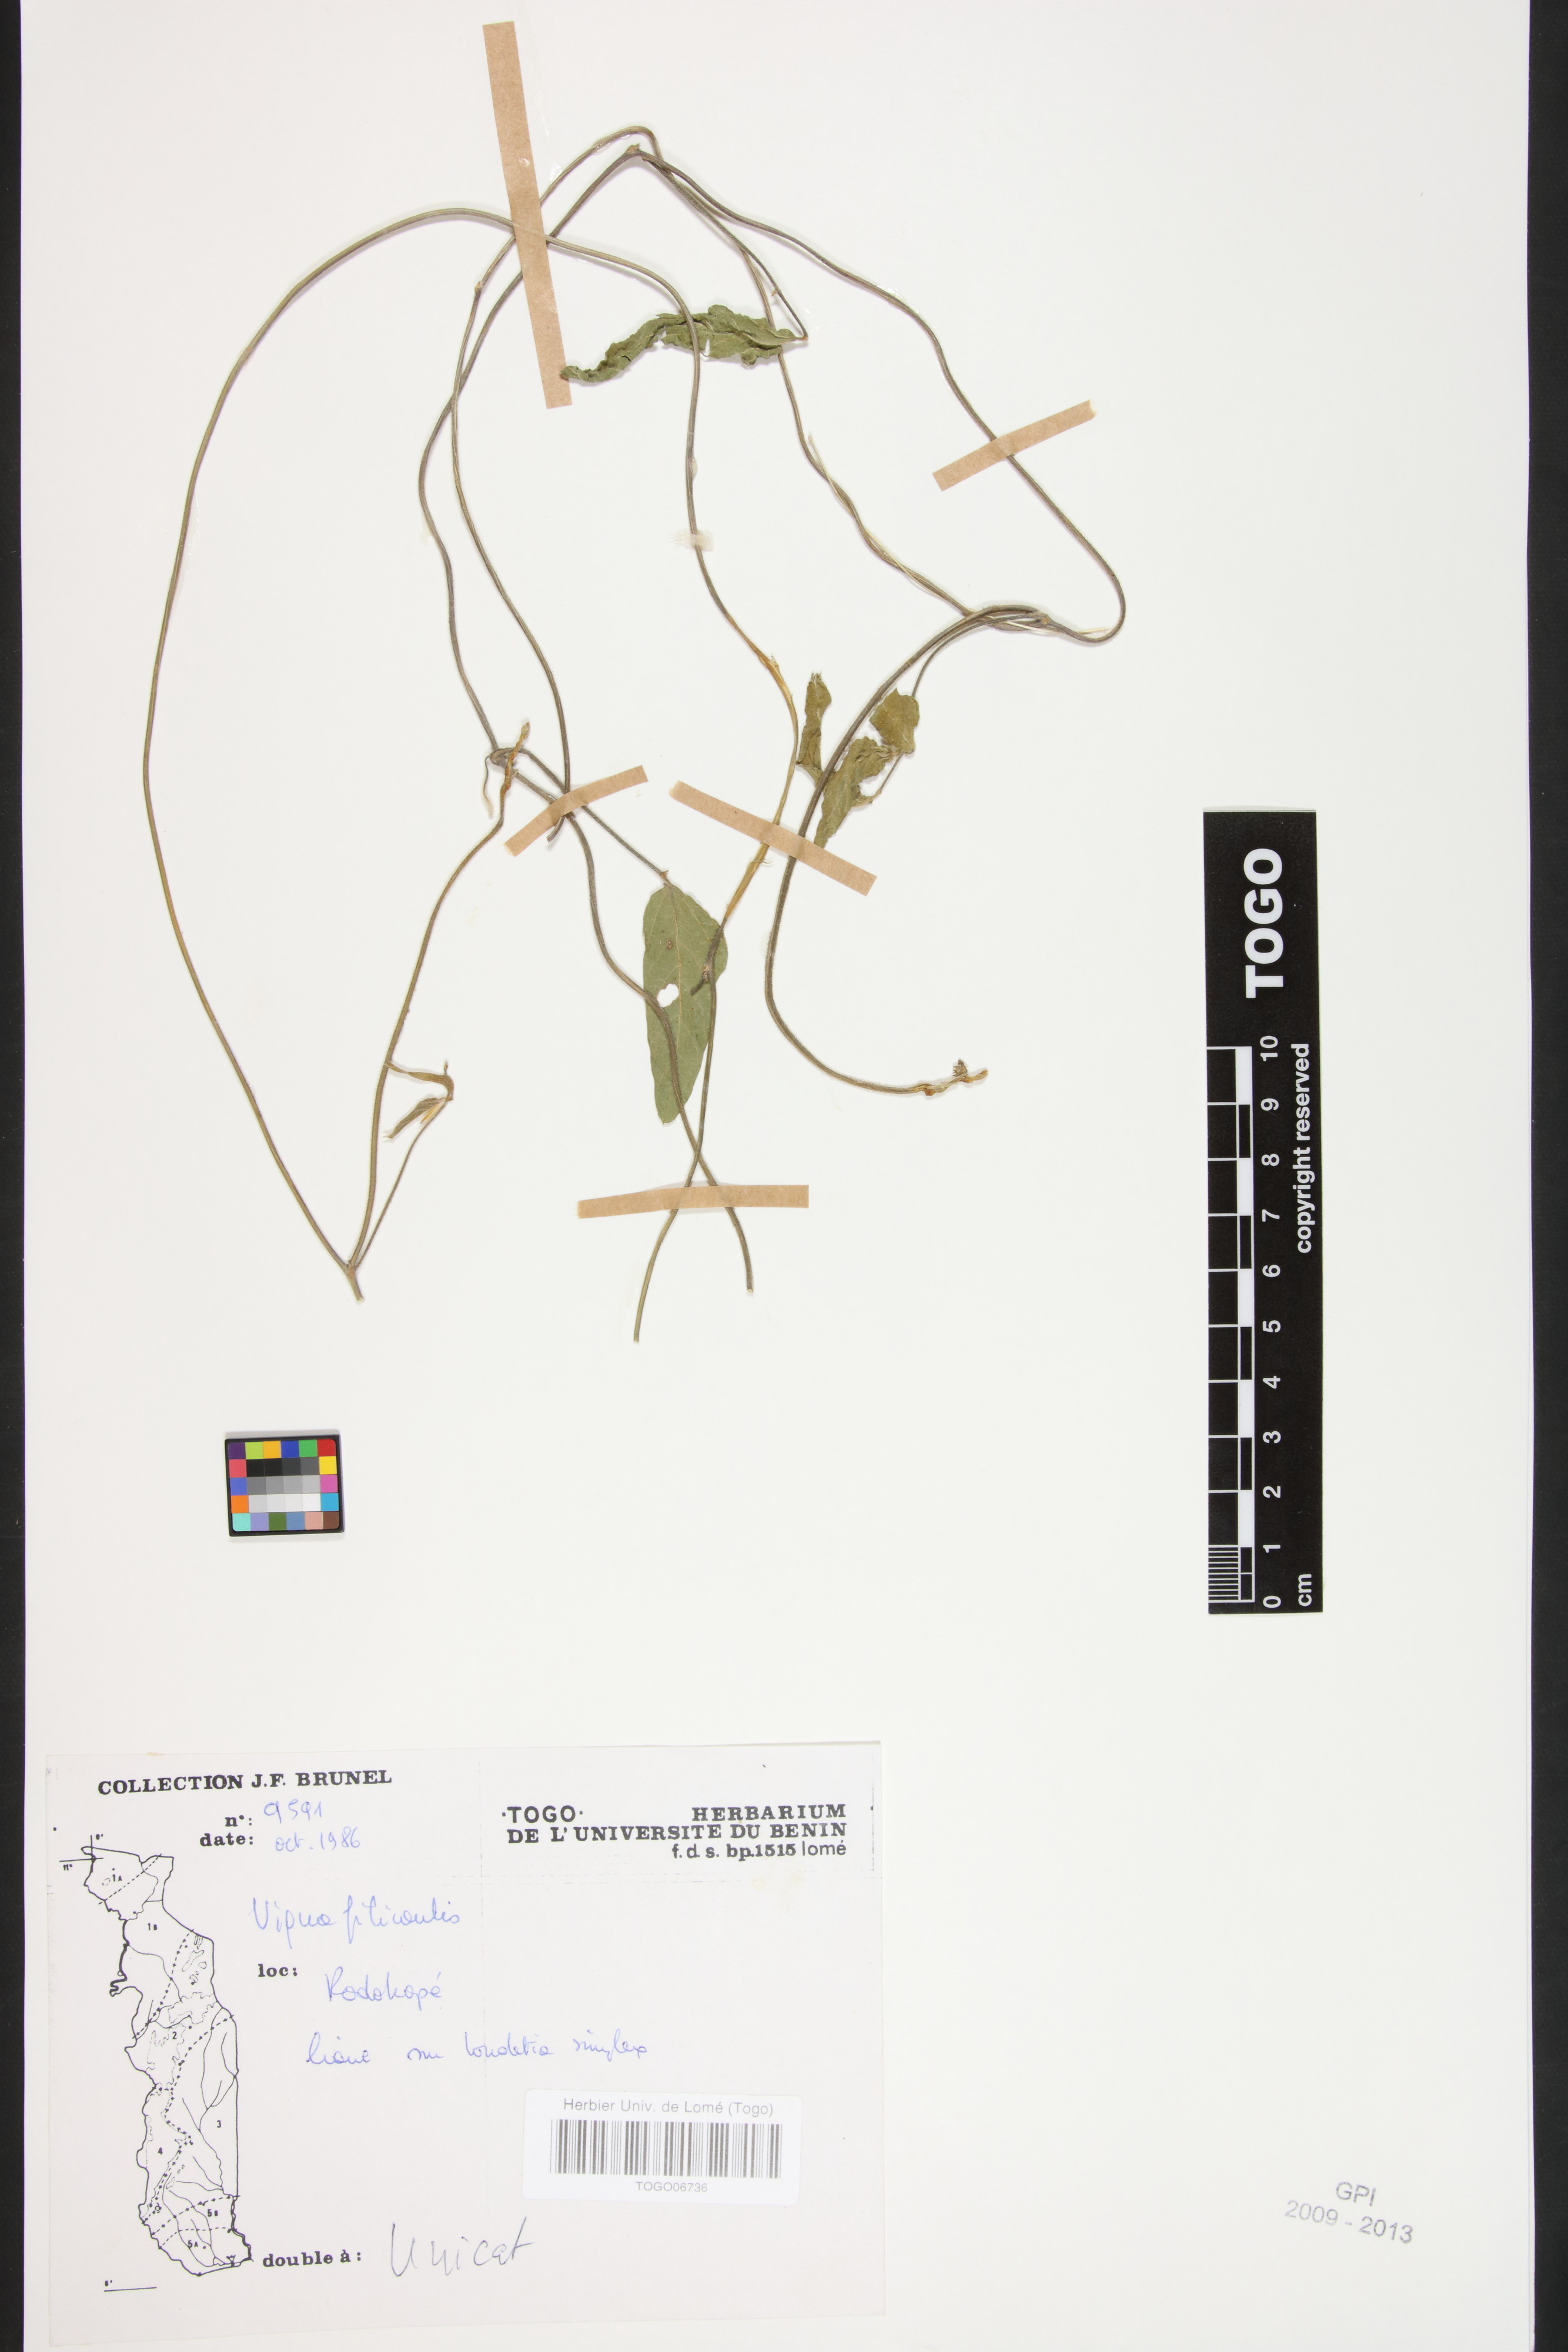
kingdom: Plantae
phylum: Tracheophyta
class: Magnoliopsida
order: Fabales
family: Fabaceae
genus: Vigna
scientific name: Vigna filicaulis
